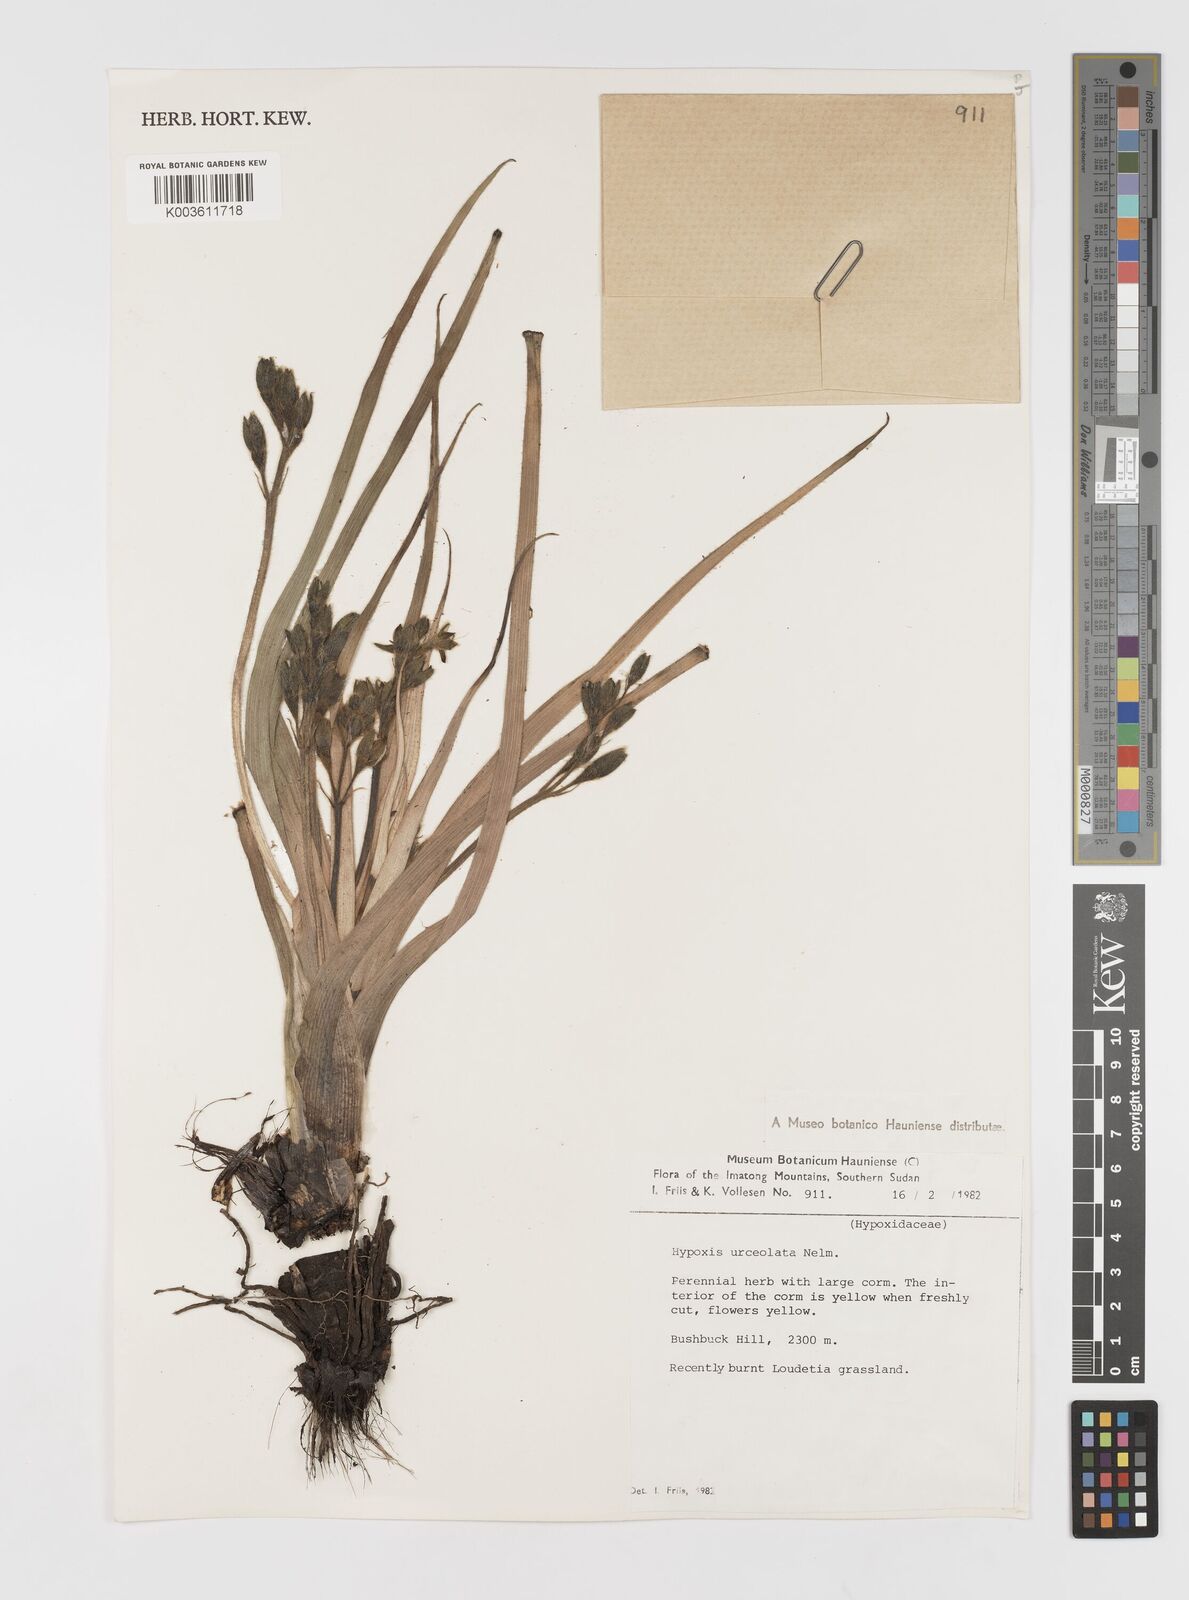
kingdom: Plantae
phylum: Tracheophyta
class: Liliopsida
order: Asparagales
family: Hypoxidaceae
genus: Hypoxis
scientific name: Hypoxis urceolata
